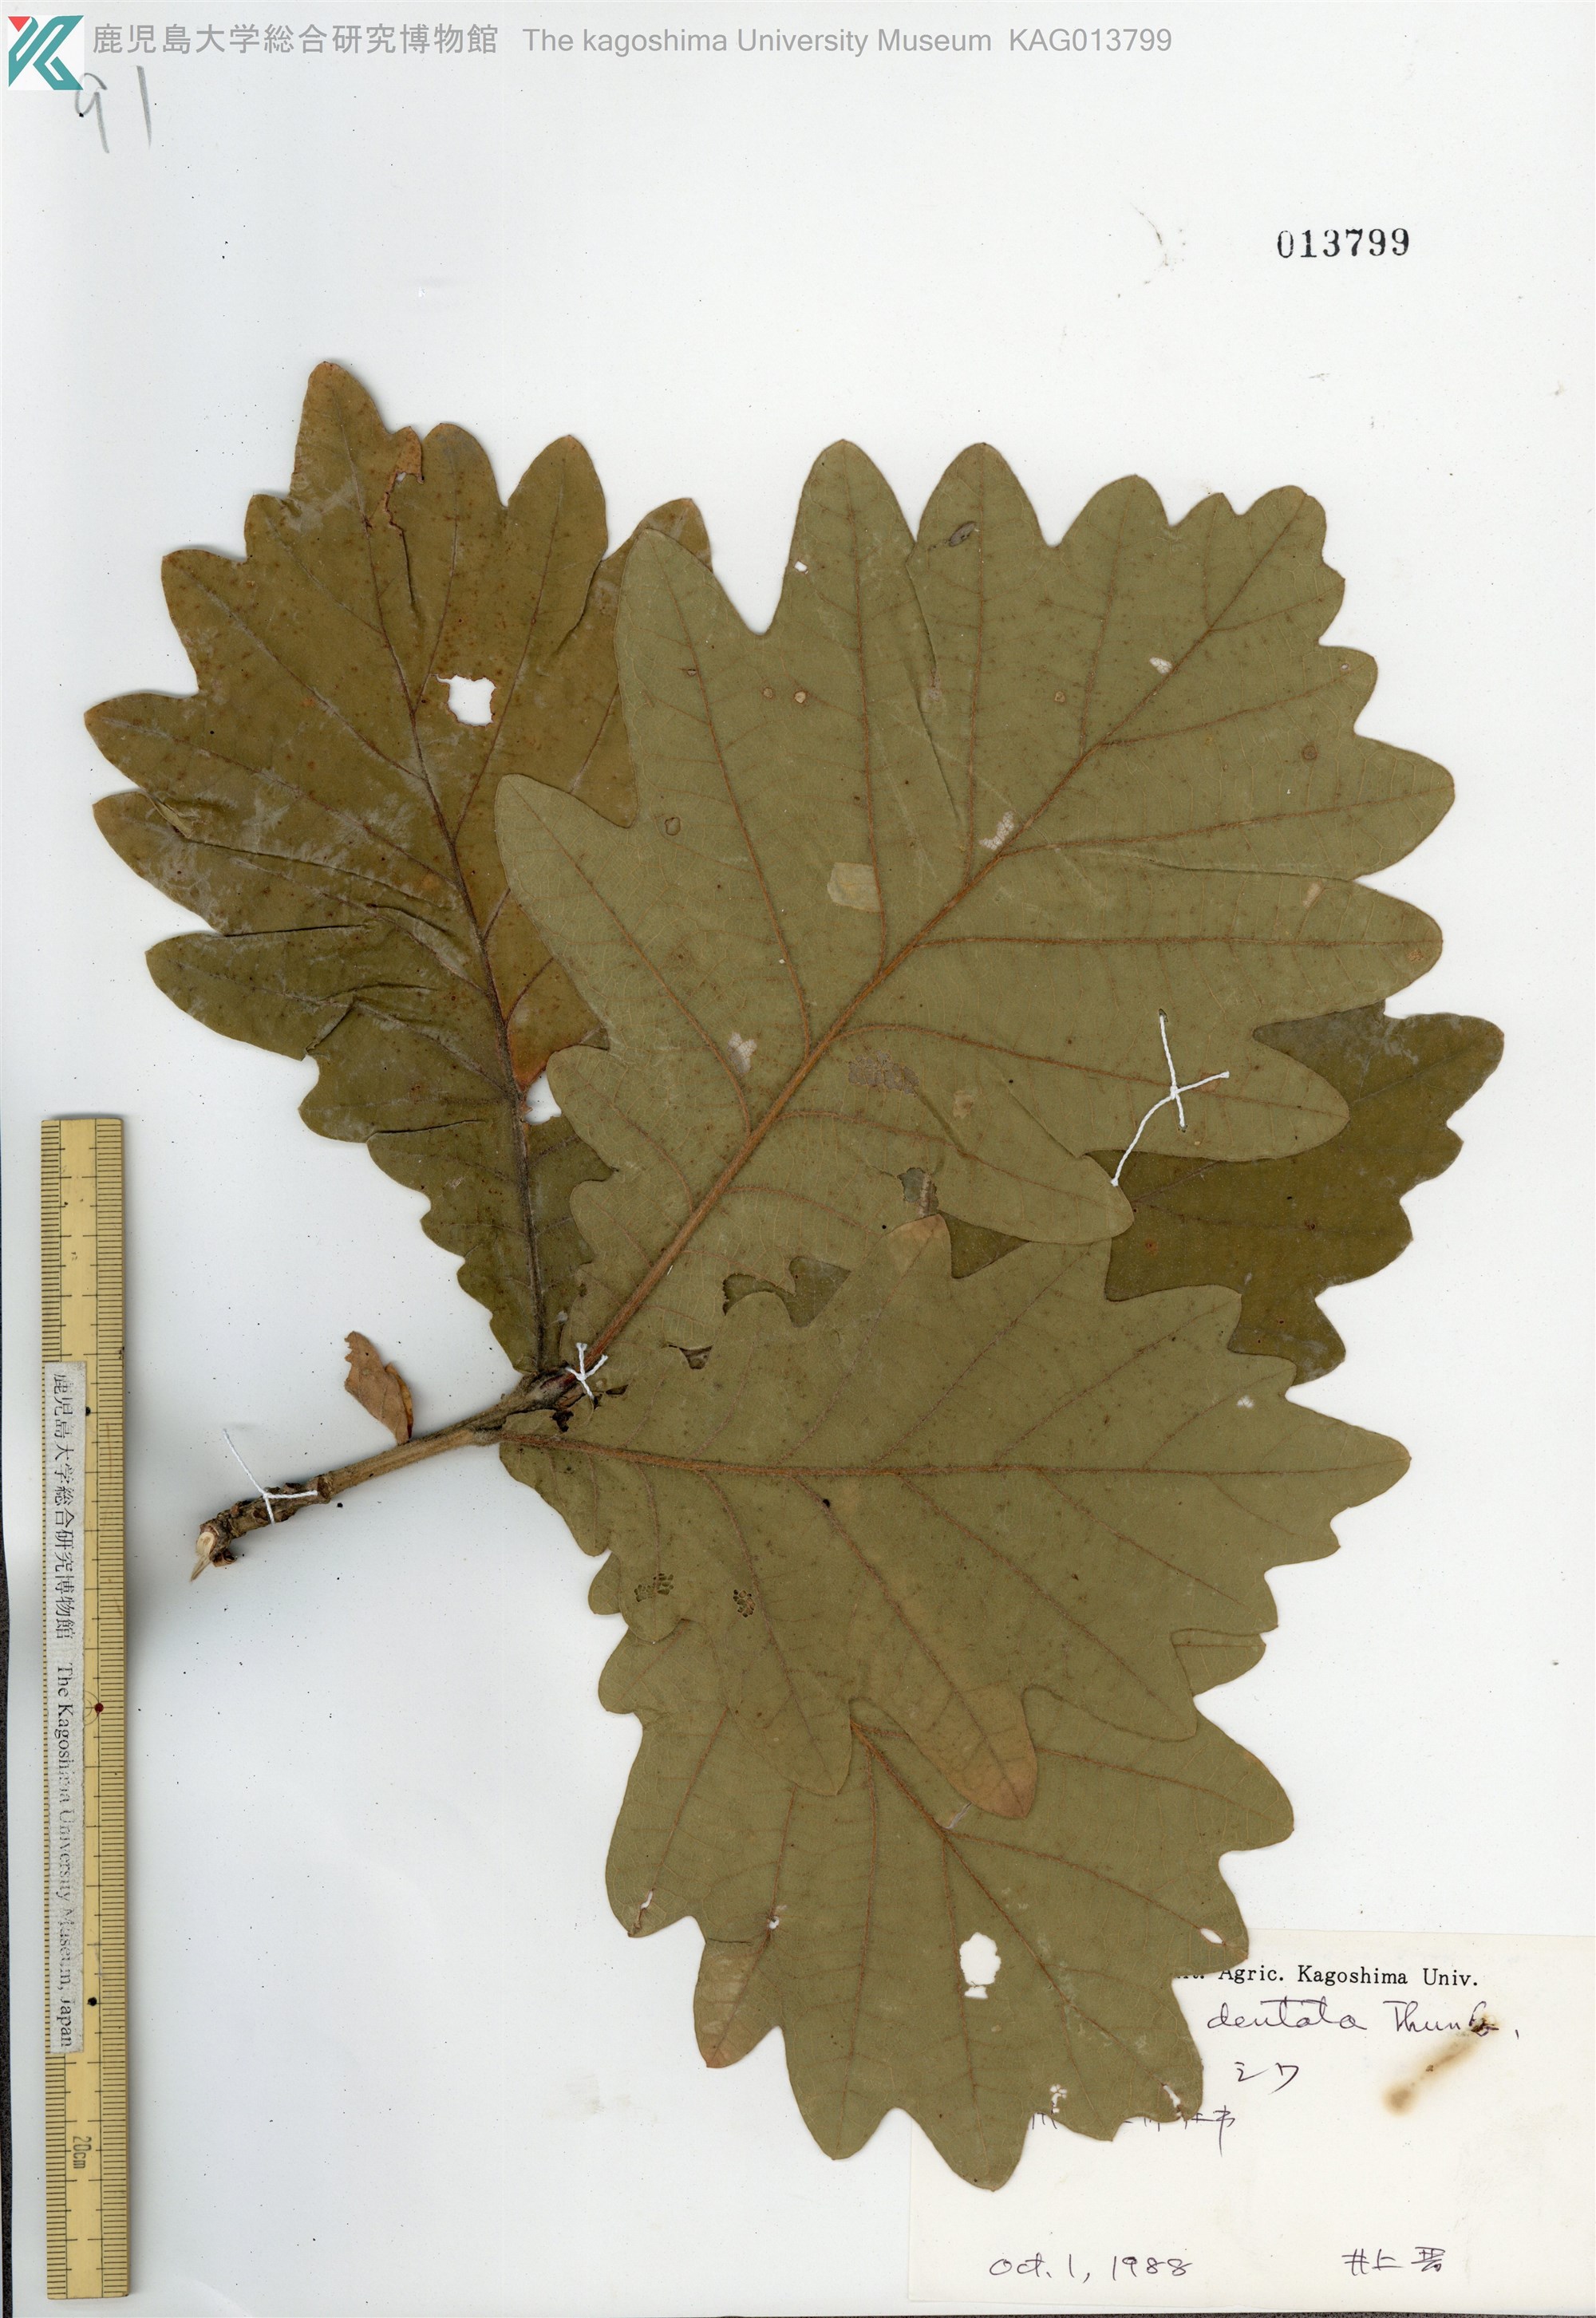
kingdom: Plantae
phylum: Tracheophyta
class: Magnoliopsida
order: Fagales
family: Fagaceae
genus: Quercus
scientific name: Quercus dentata
